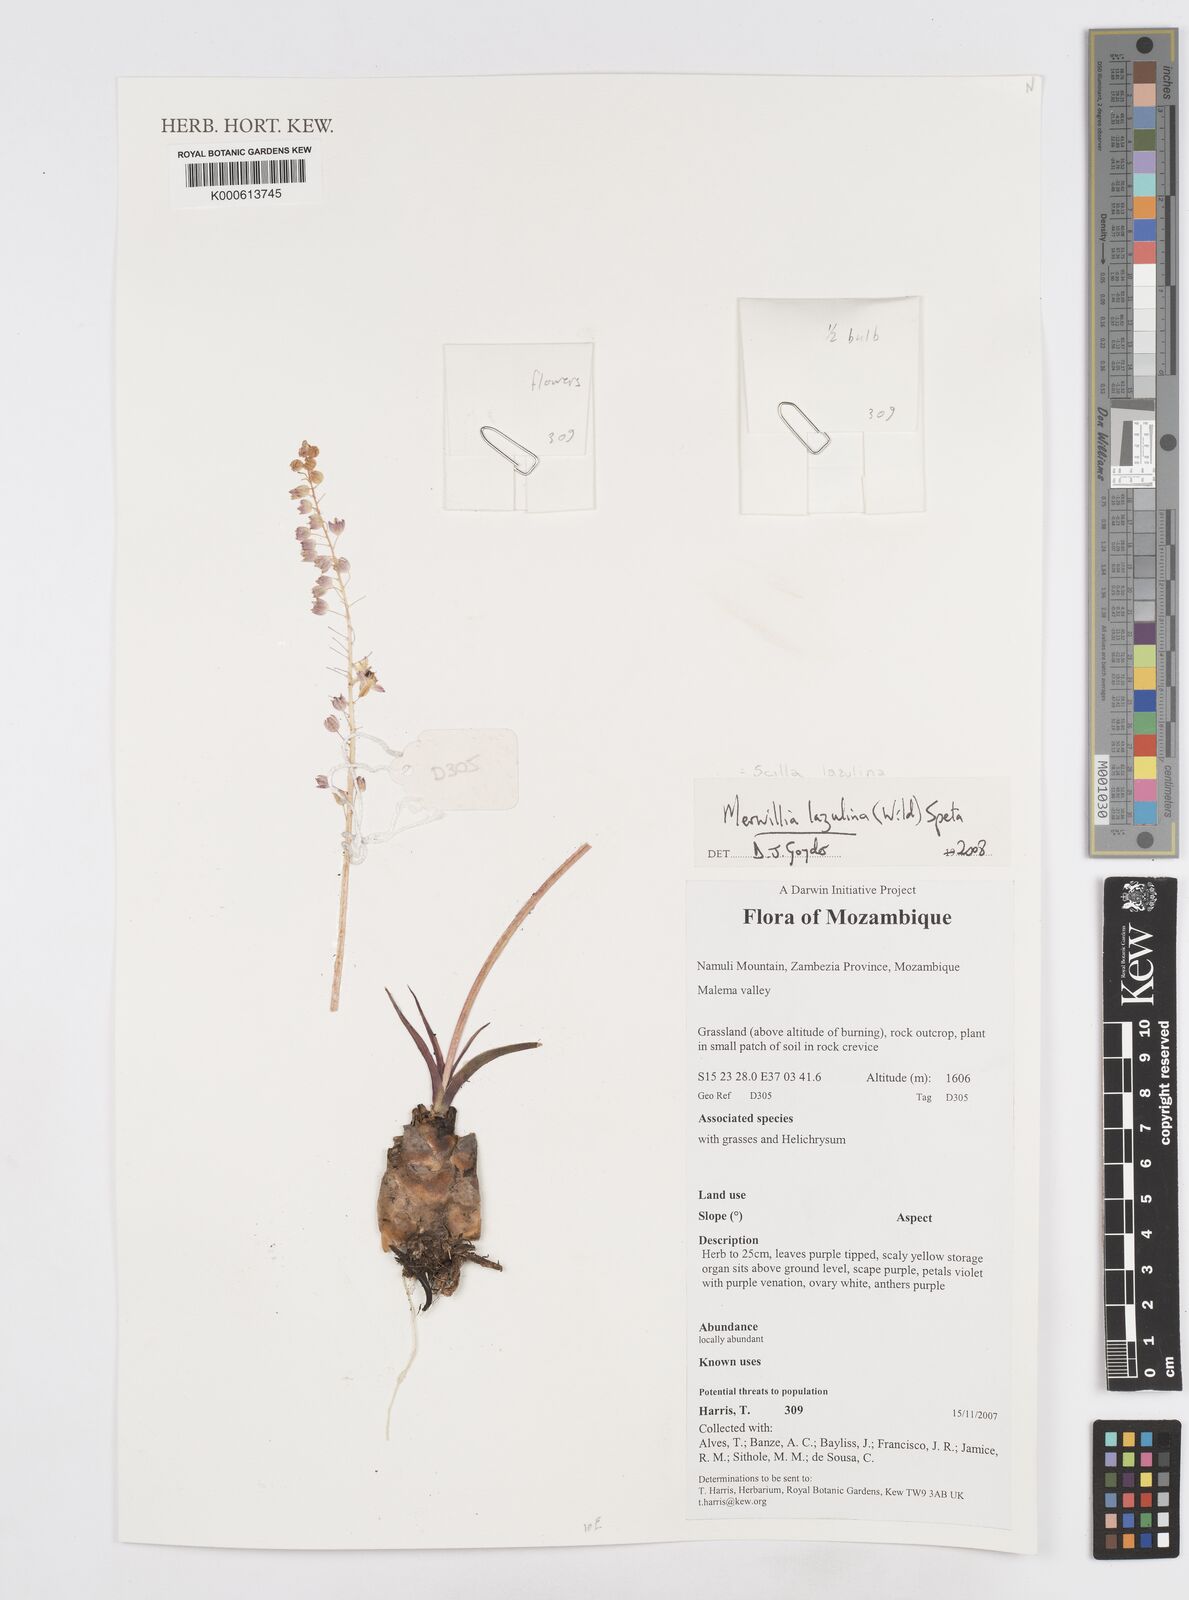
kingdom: Plantae
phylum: Tracheophyta
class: Liliopsida
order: Asparagales
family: Asparagaceae
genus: Merwilla
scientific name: Merwilla plumbea
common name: Blue-squill
